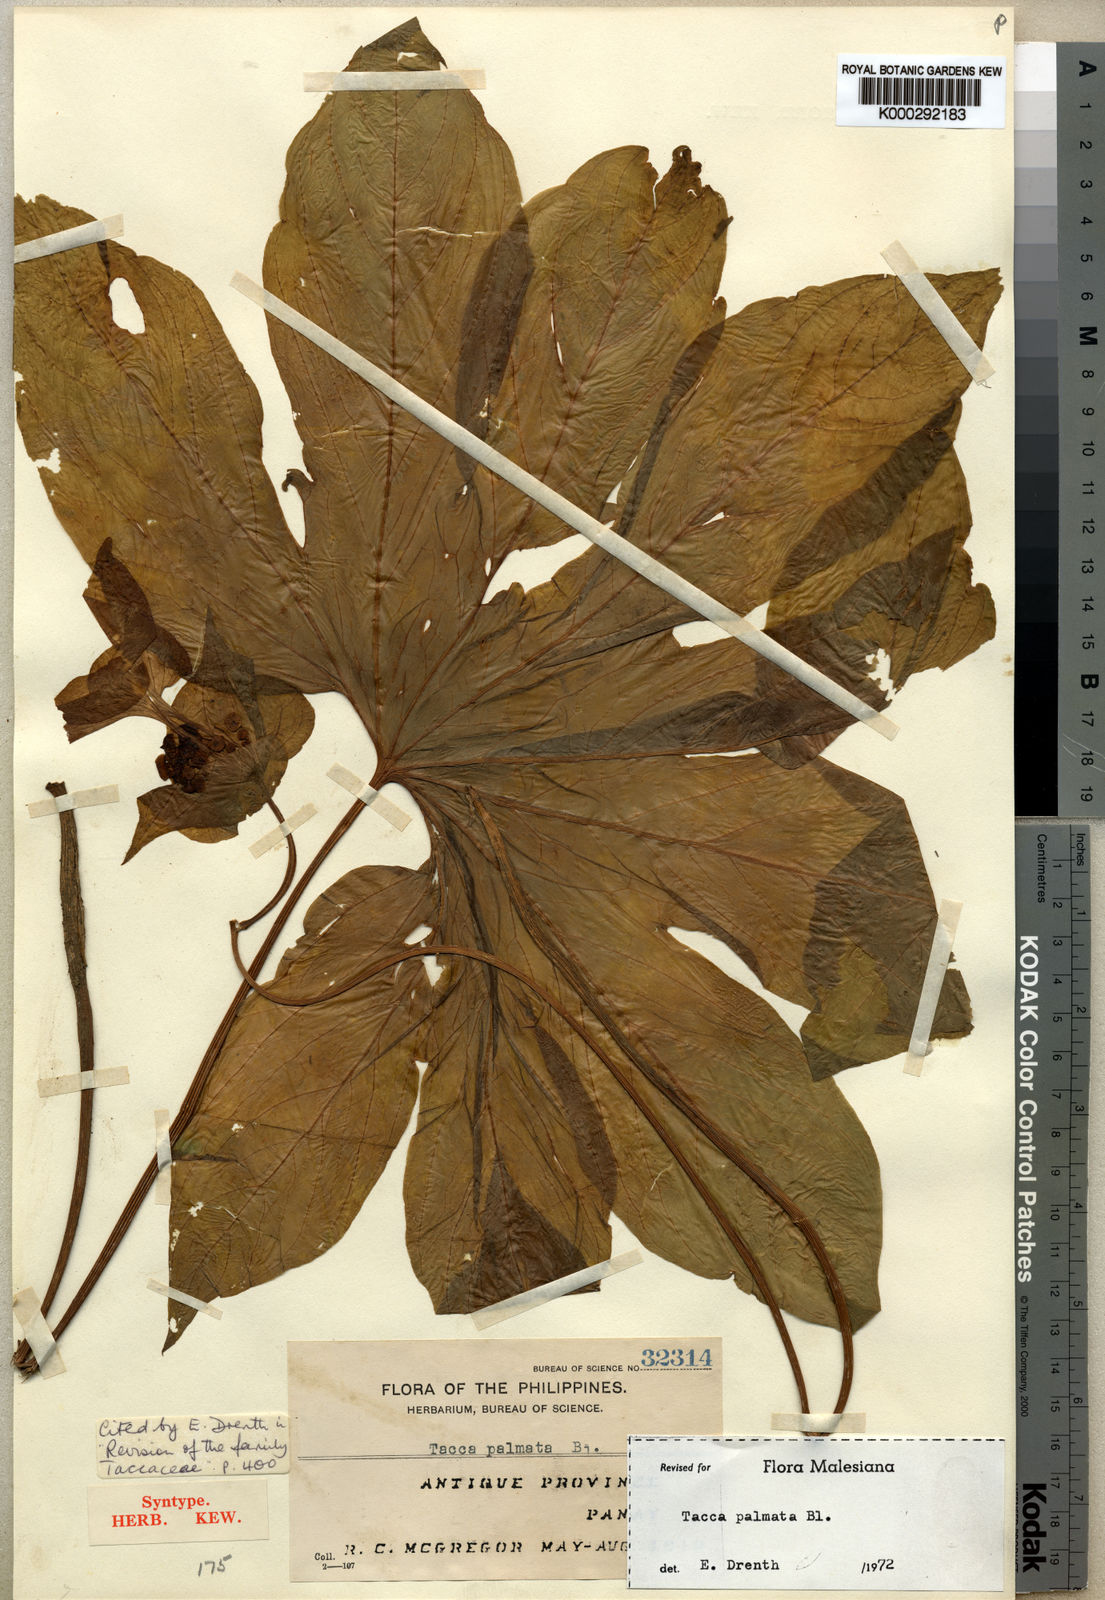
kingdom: Plantae
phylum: Tracheophyta
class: Liliopsida
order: Dioscoreales
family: Dioscoreaceae
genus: Tacca
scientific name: Tacca palmata
